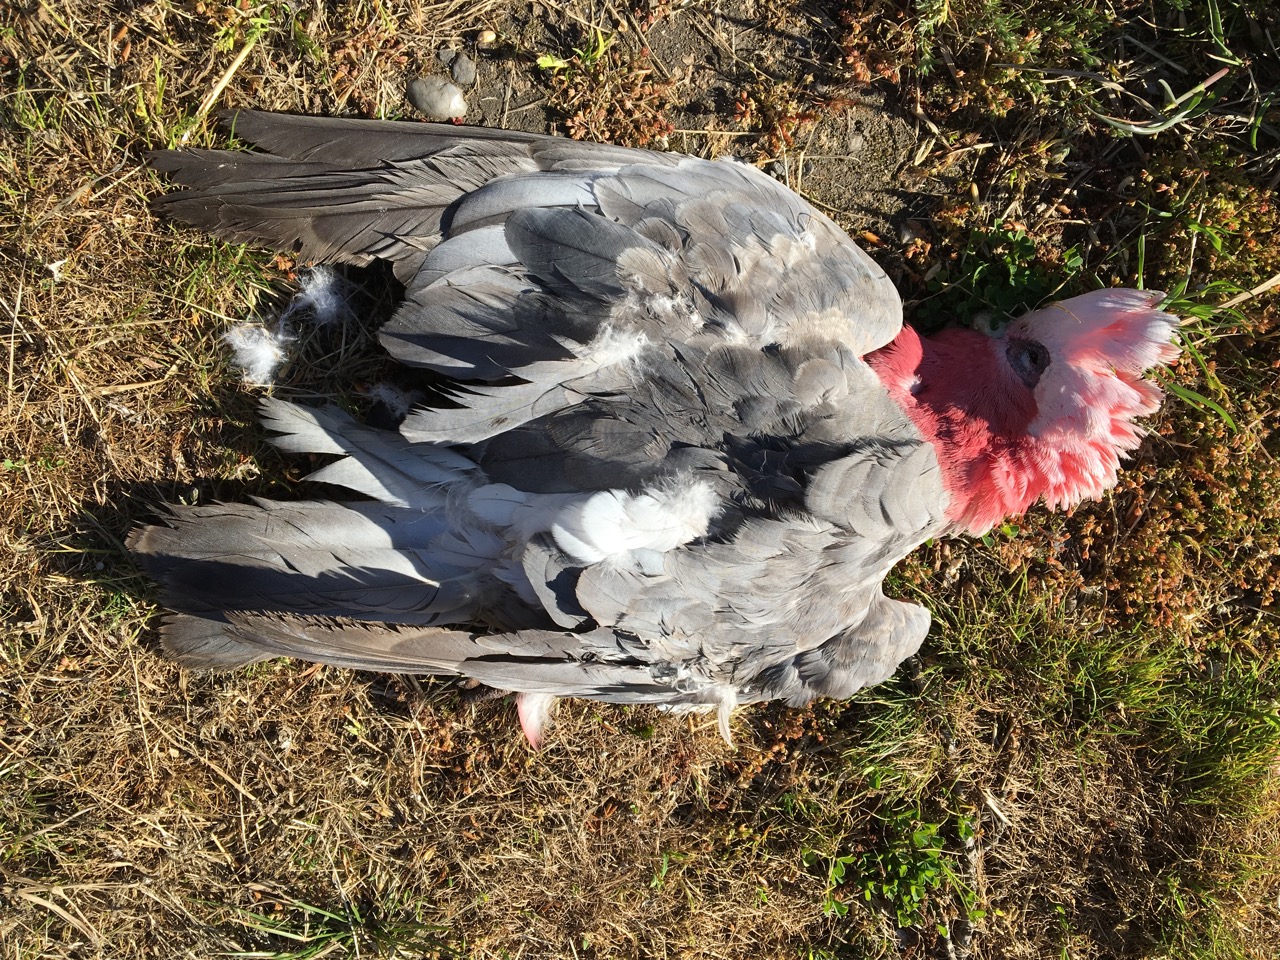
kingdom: Animalia
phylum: Chordata
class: Aves
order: Psittaciformes
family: Psittacidae
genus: Eolophus
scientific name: Eolophus roseicapilla
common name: Galah
